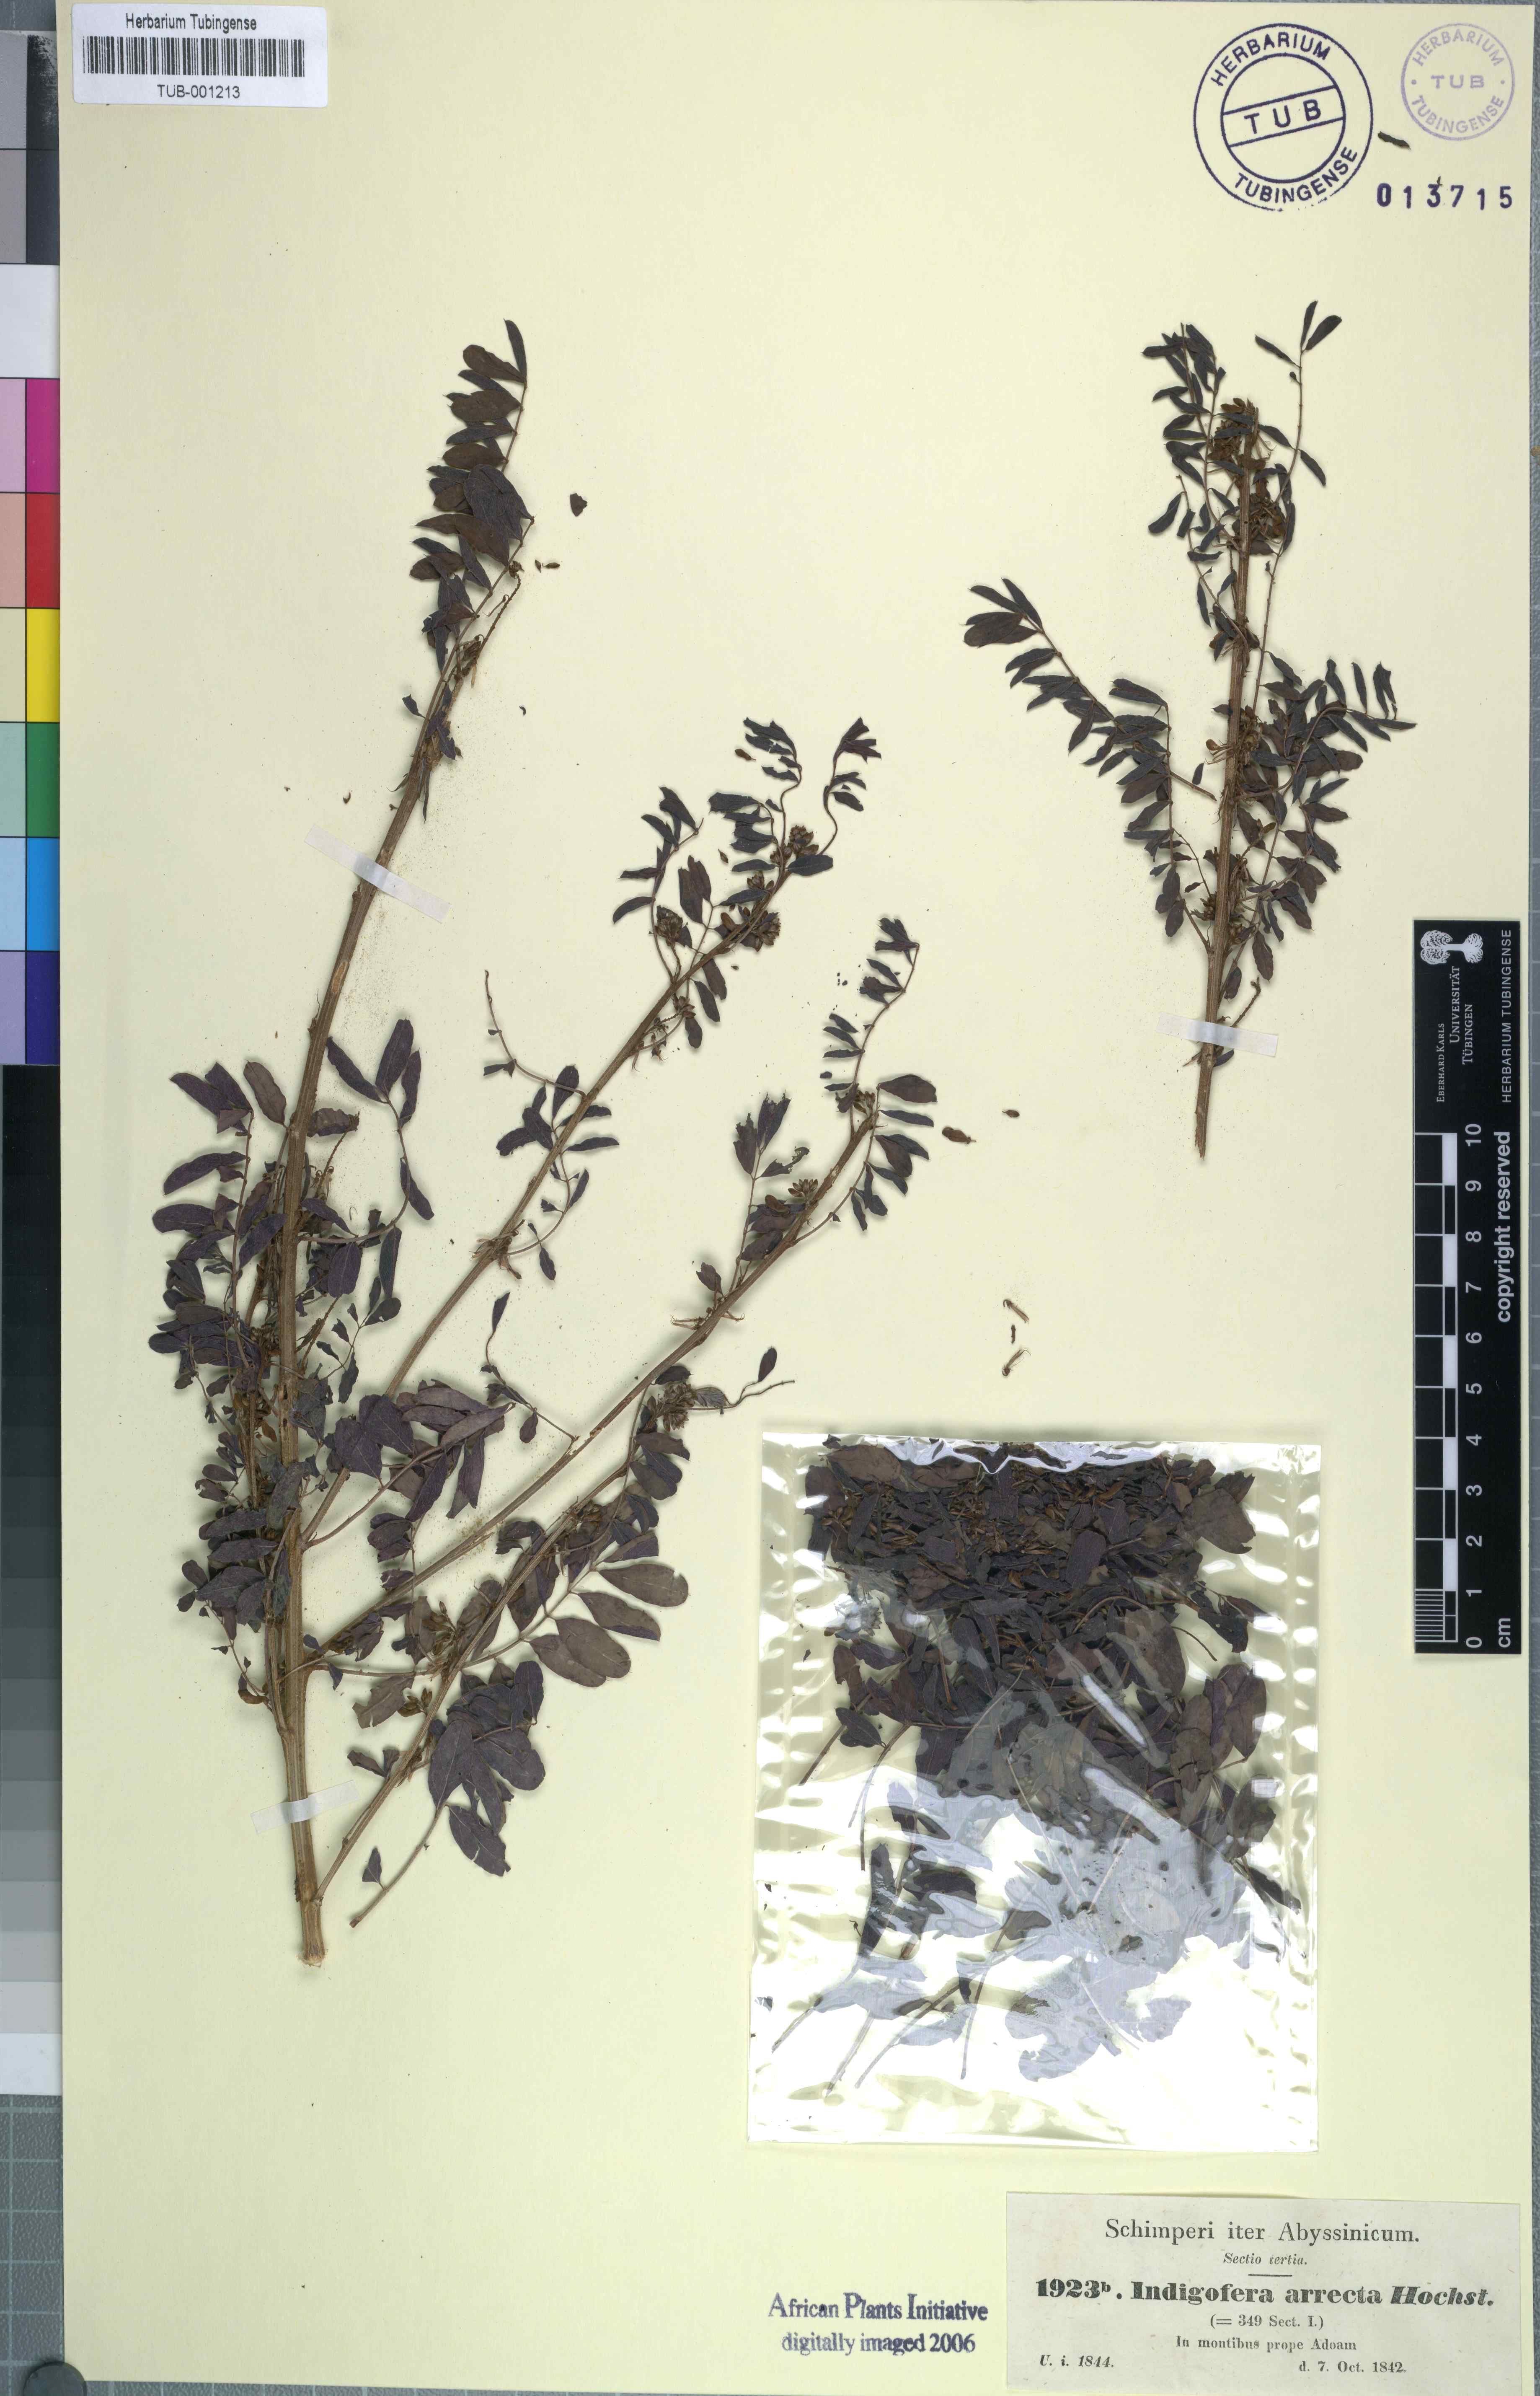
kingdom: Plantae
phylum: Tracheophyta
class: Magnoliopsida
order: Fabales
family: Fabaceae
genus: Indigofera
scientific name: Indigofera arrecta
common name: Bengal indigo
